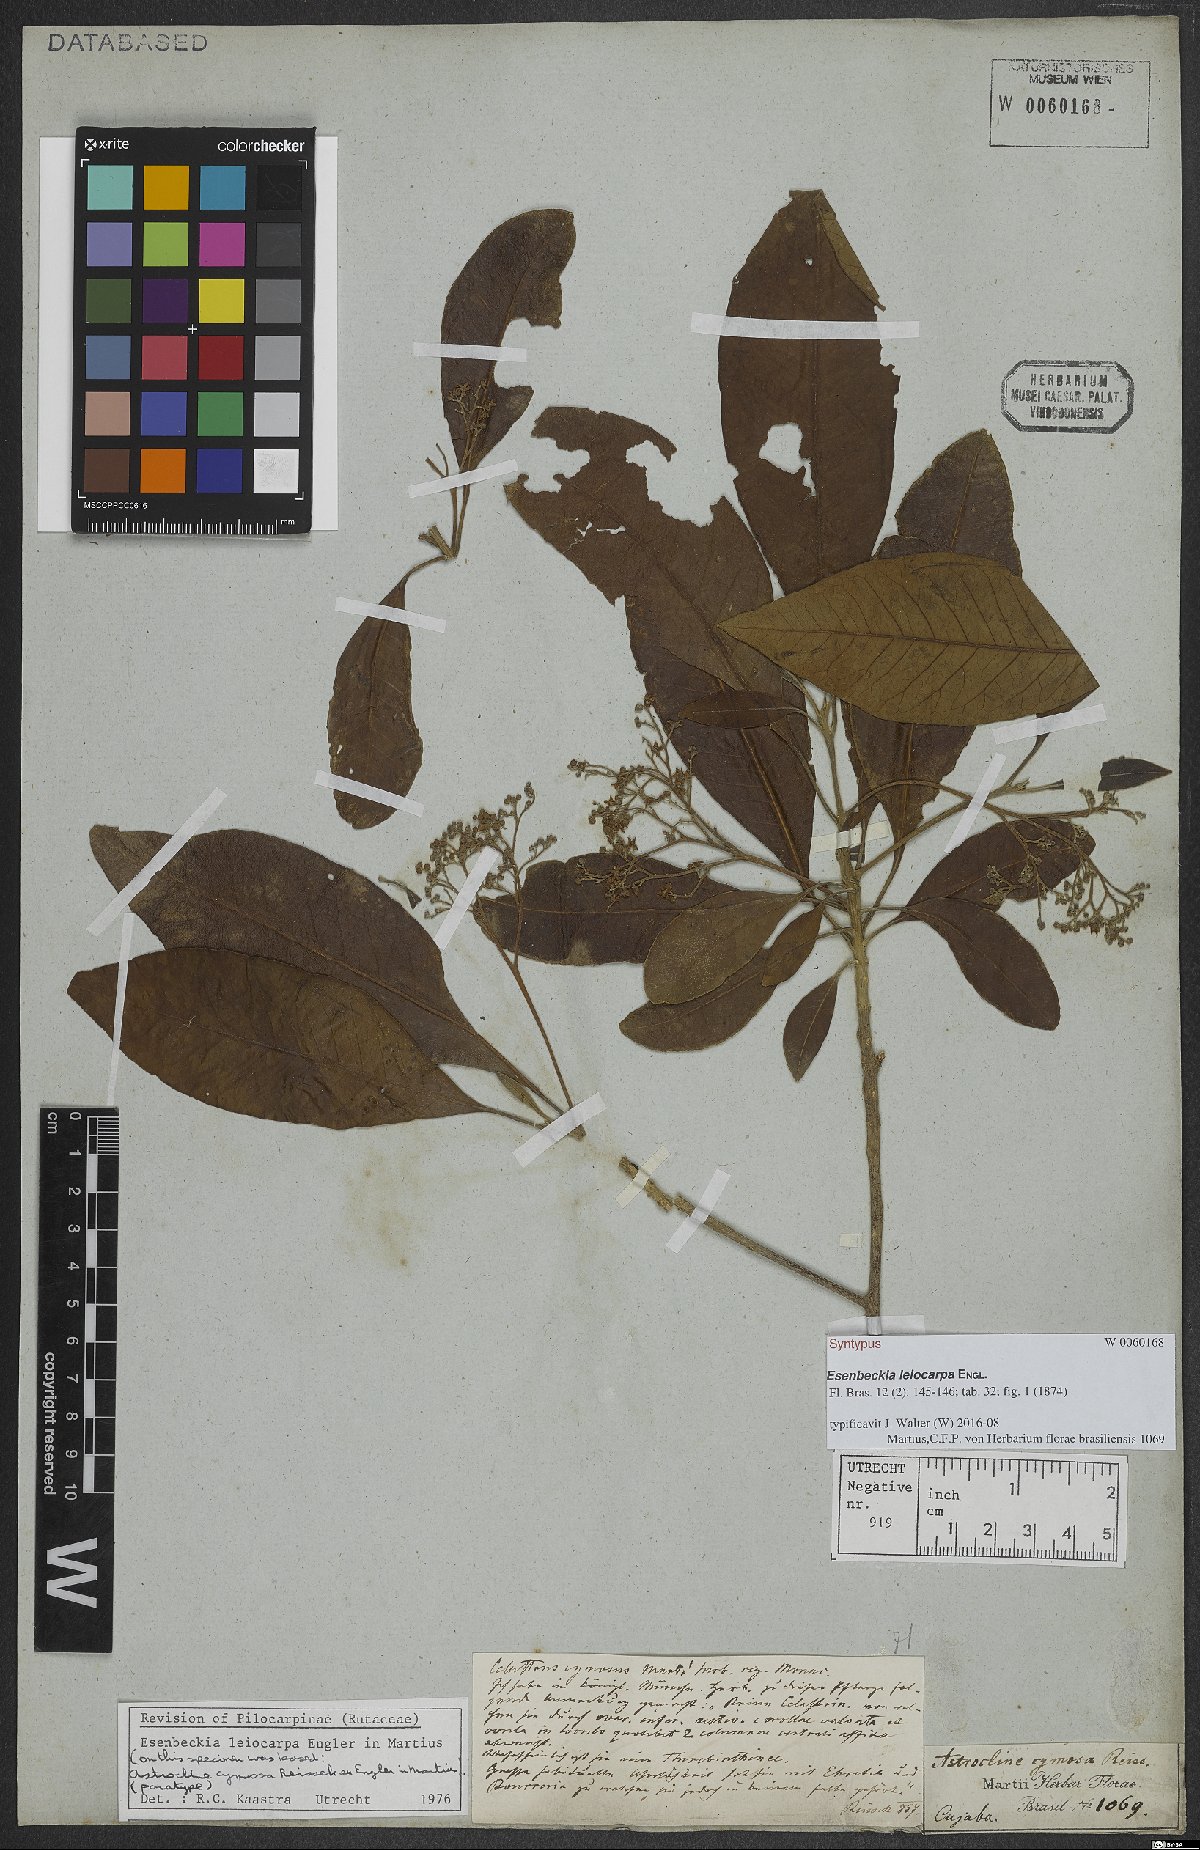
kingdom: Plantae
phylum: Tracheophyta
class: Magnoliopsida
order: Sapindales
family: Rutaceae
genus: Esenbeckia
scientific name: Esenbeckia leiocarpa
